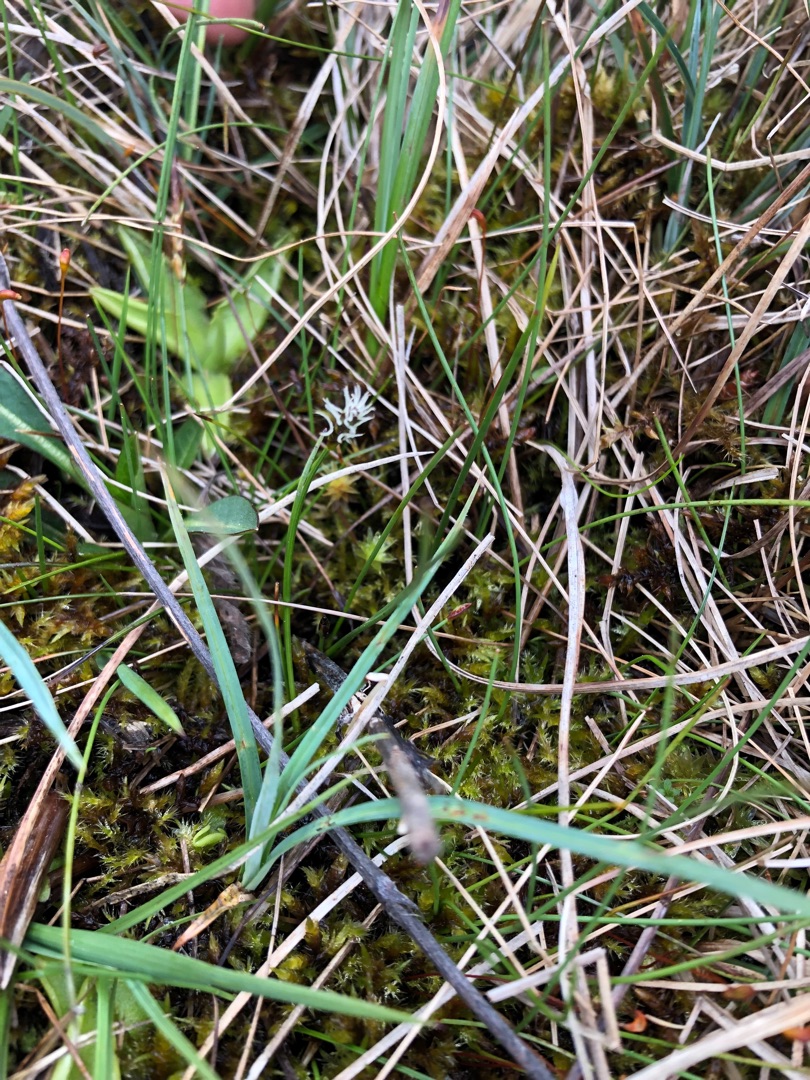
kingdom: Plantae
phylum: Tracheophyta
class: Liliopsida
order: Poales
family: Cyperaceae
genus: Carex
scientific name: Carex dioica
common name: Tvebo star
